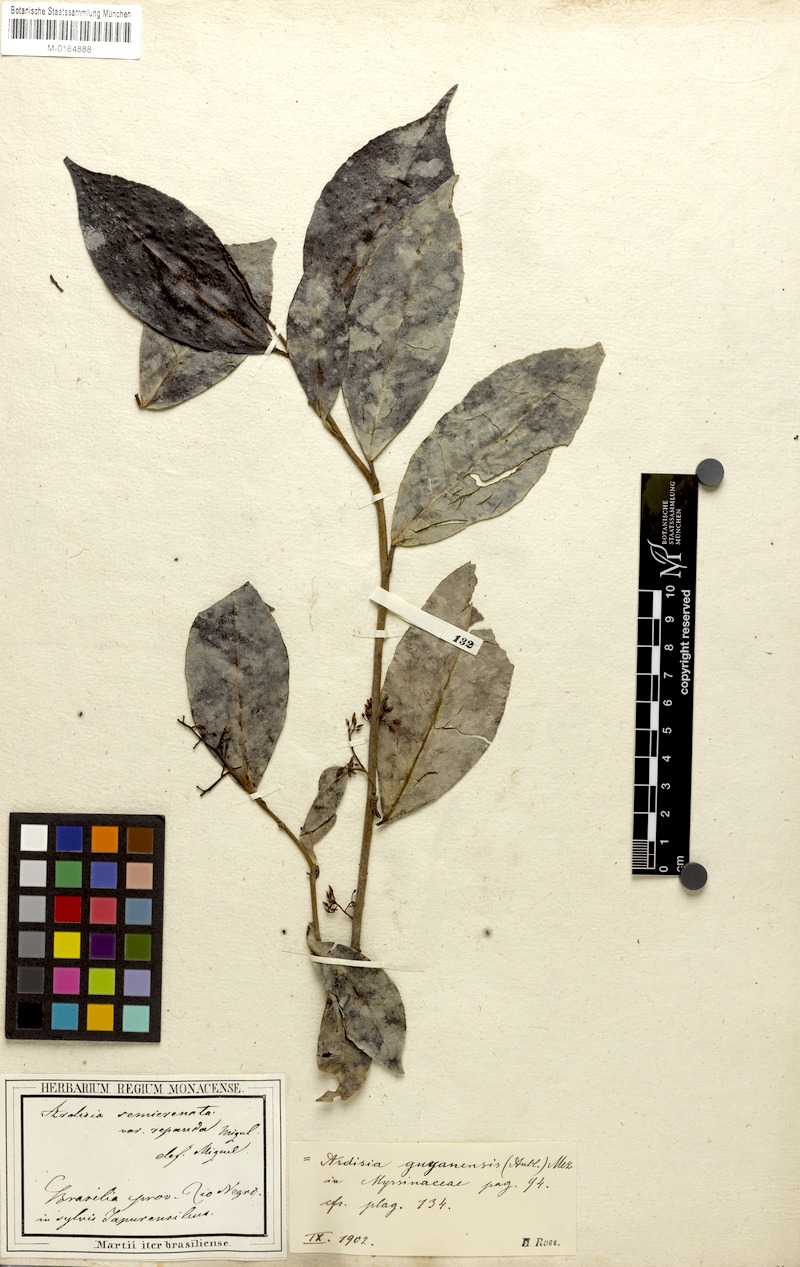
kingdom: Plantae
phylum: Tracheophyta
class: Magnoliopsida
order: Ericales
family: Primulaceae
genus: Ardisia
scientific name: Ardisia guianensis
